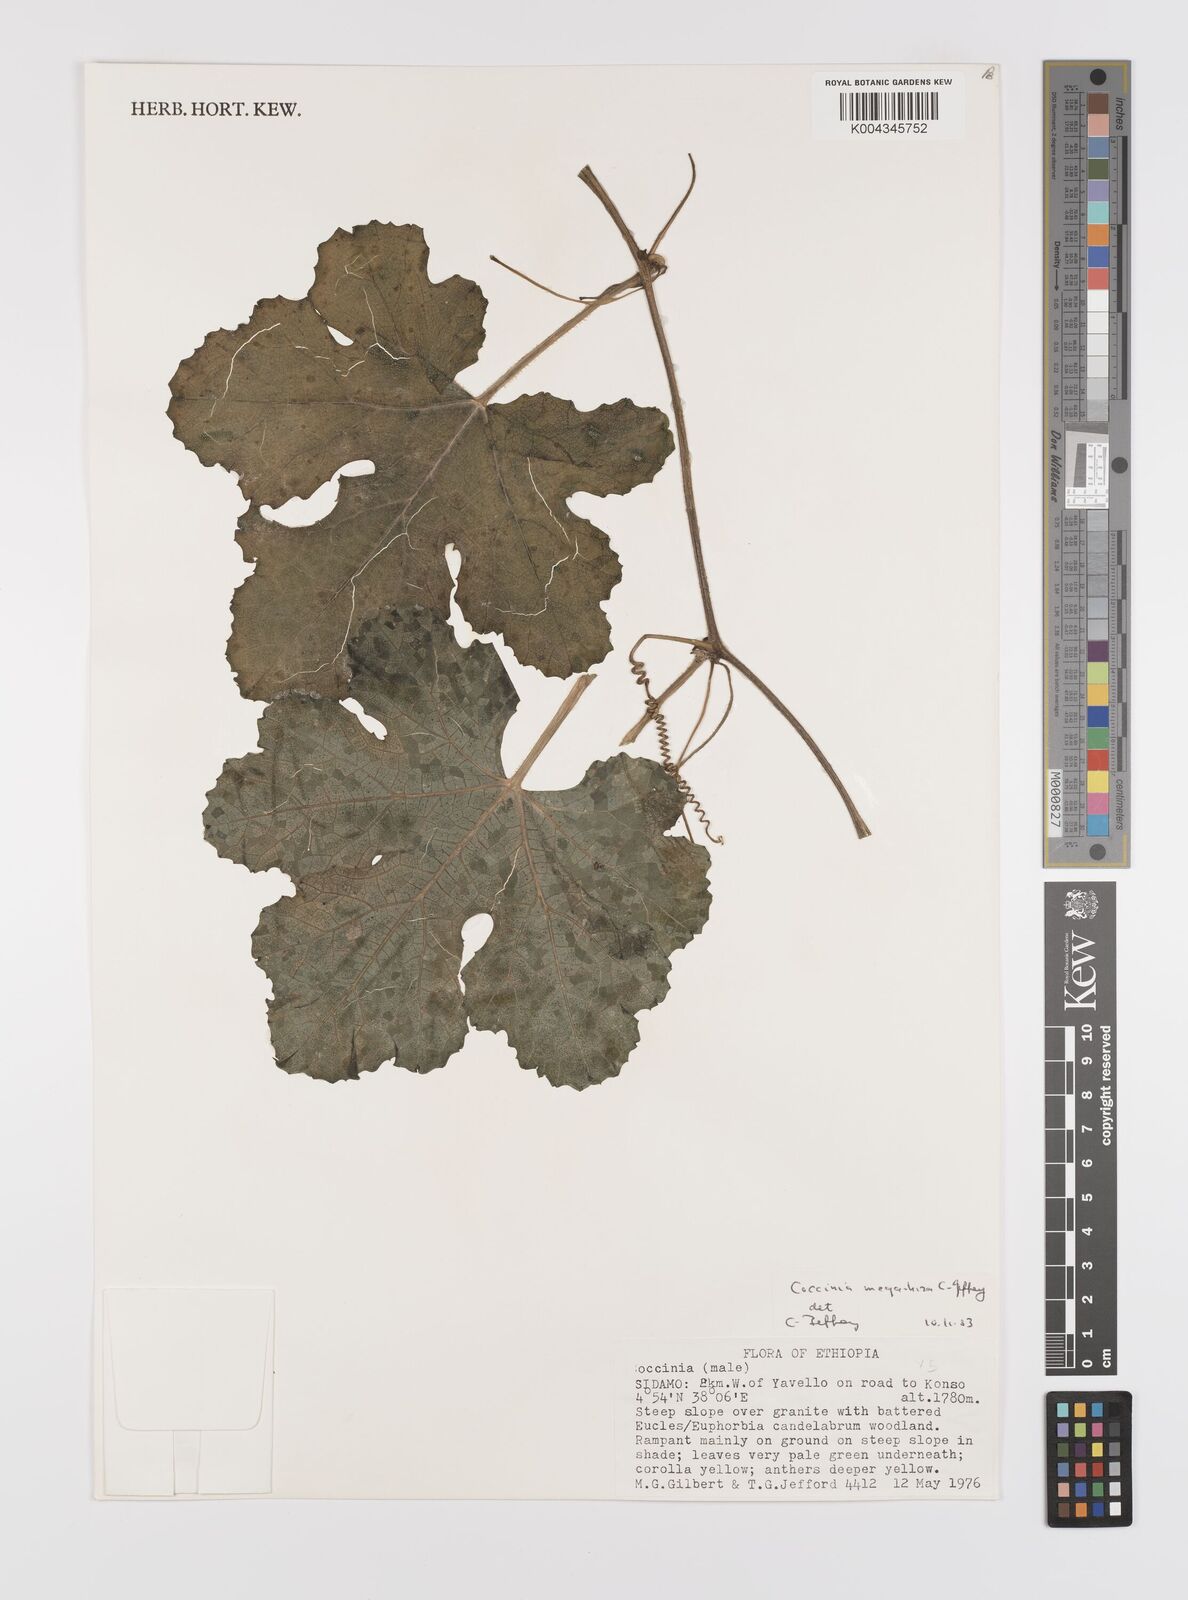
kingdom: Plantae
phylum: Tracheophyta
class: Magnoliopsida
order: Cucurbitales
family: Cucurbitaceae
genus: Coccinia
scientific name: Coccinia megarrhiza
